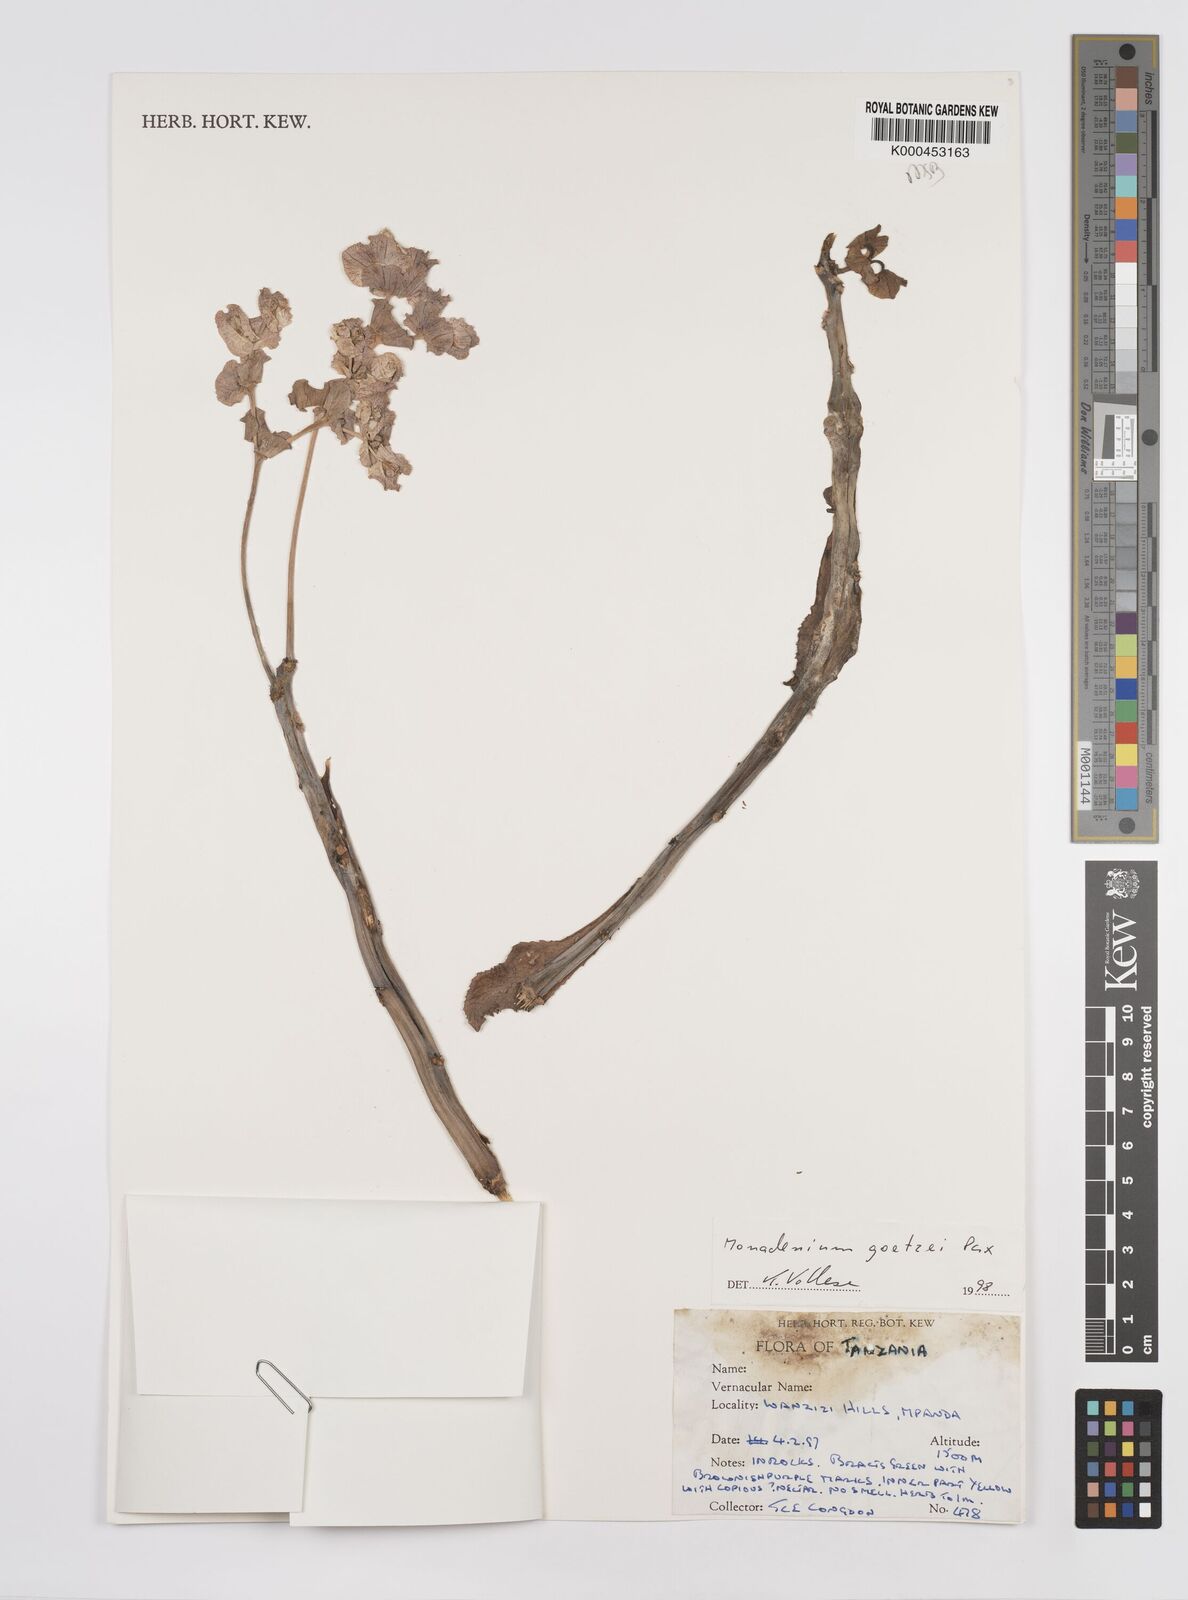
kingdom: Plantae
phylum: Tracheophyta
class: Magnoliopsida
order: Malpighiales
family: Euphorbiaceae
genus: Euphorbia
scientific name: Euphorbia neogoetzei
